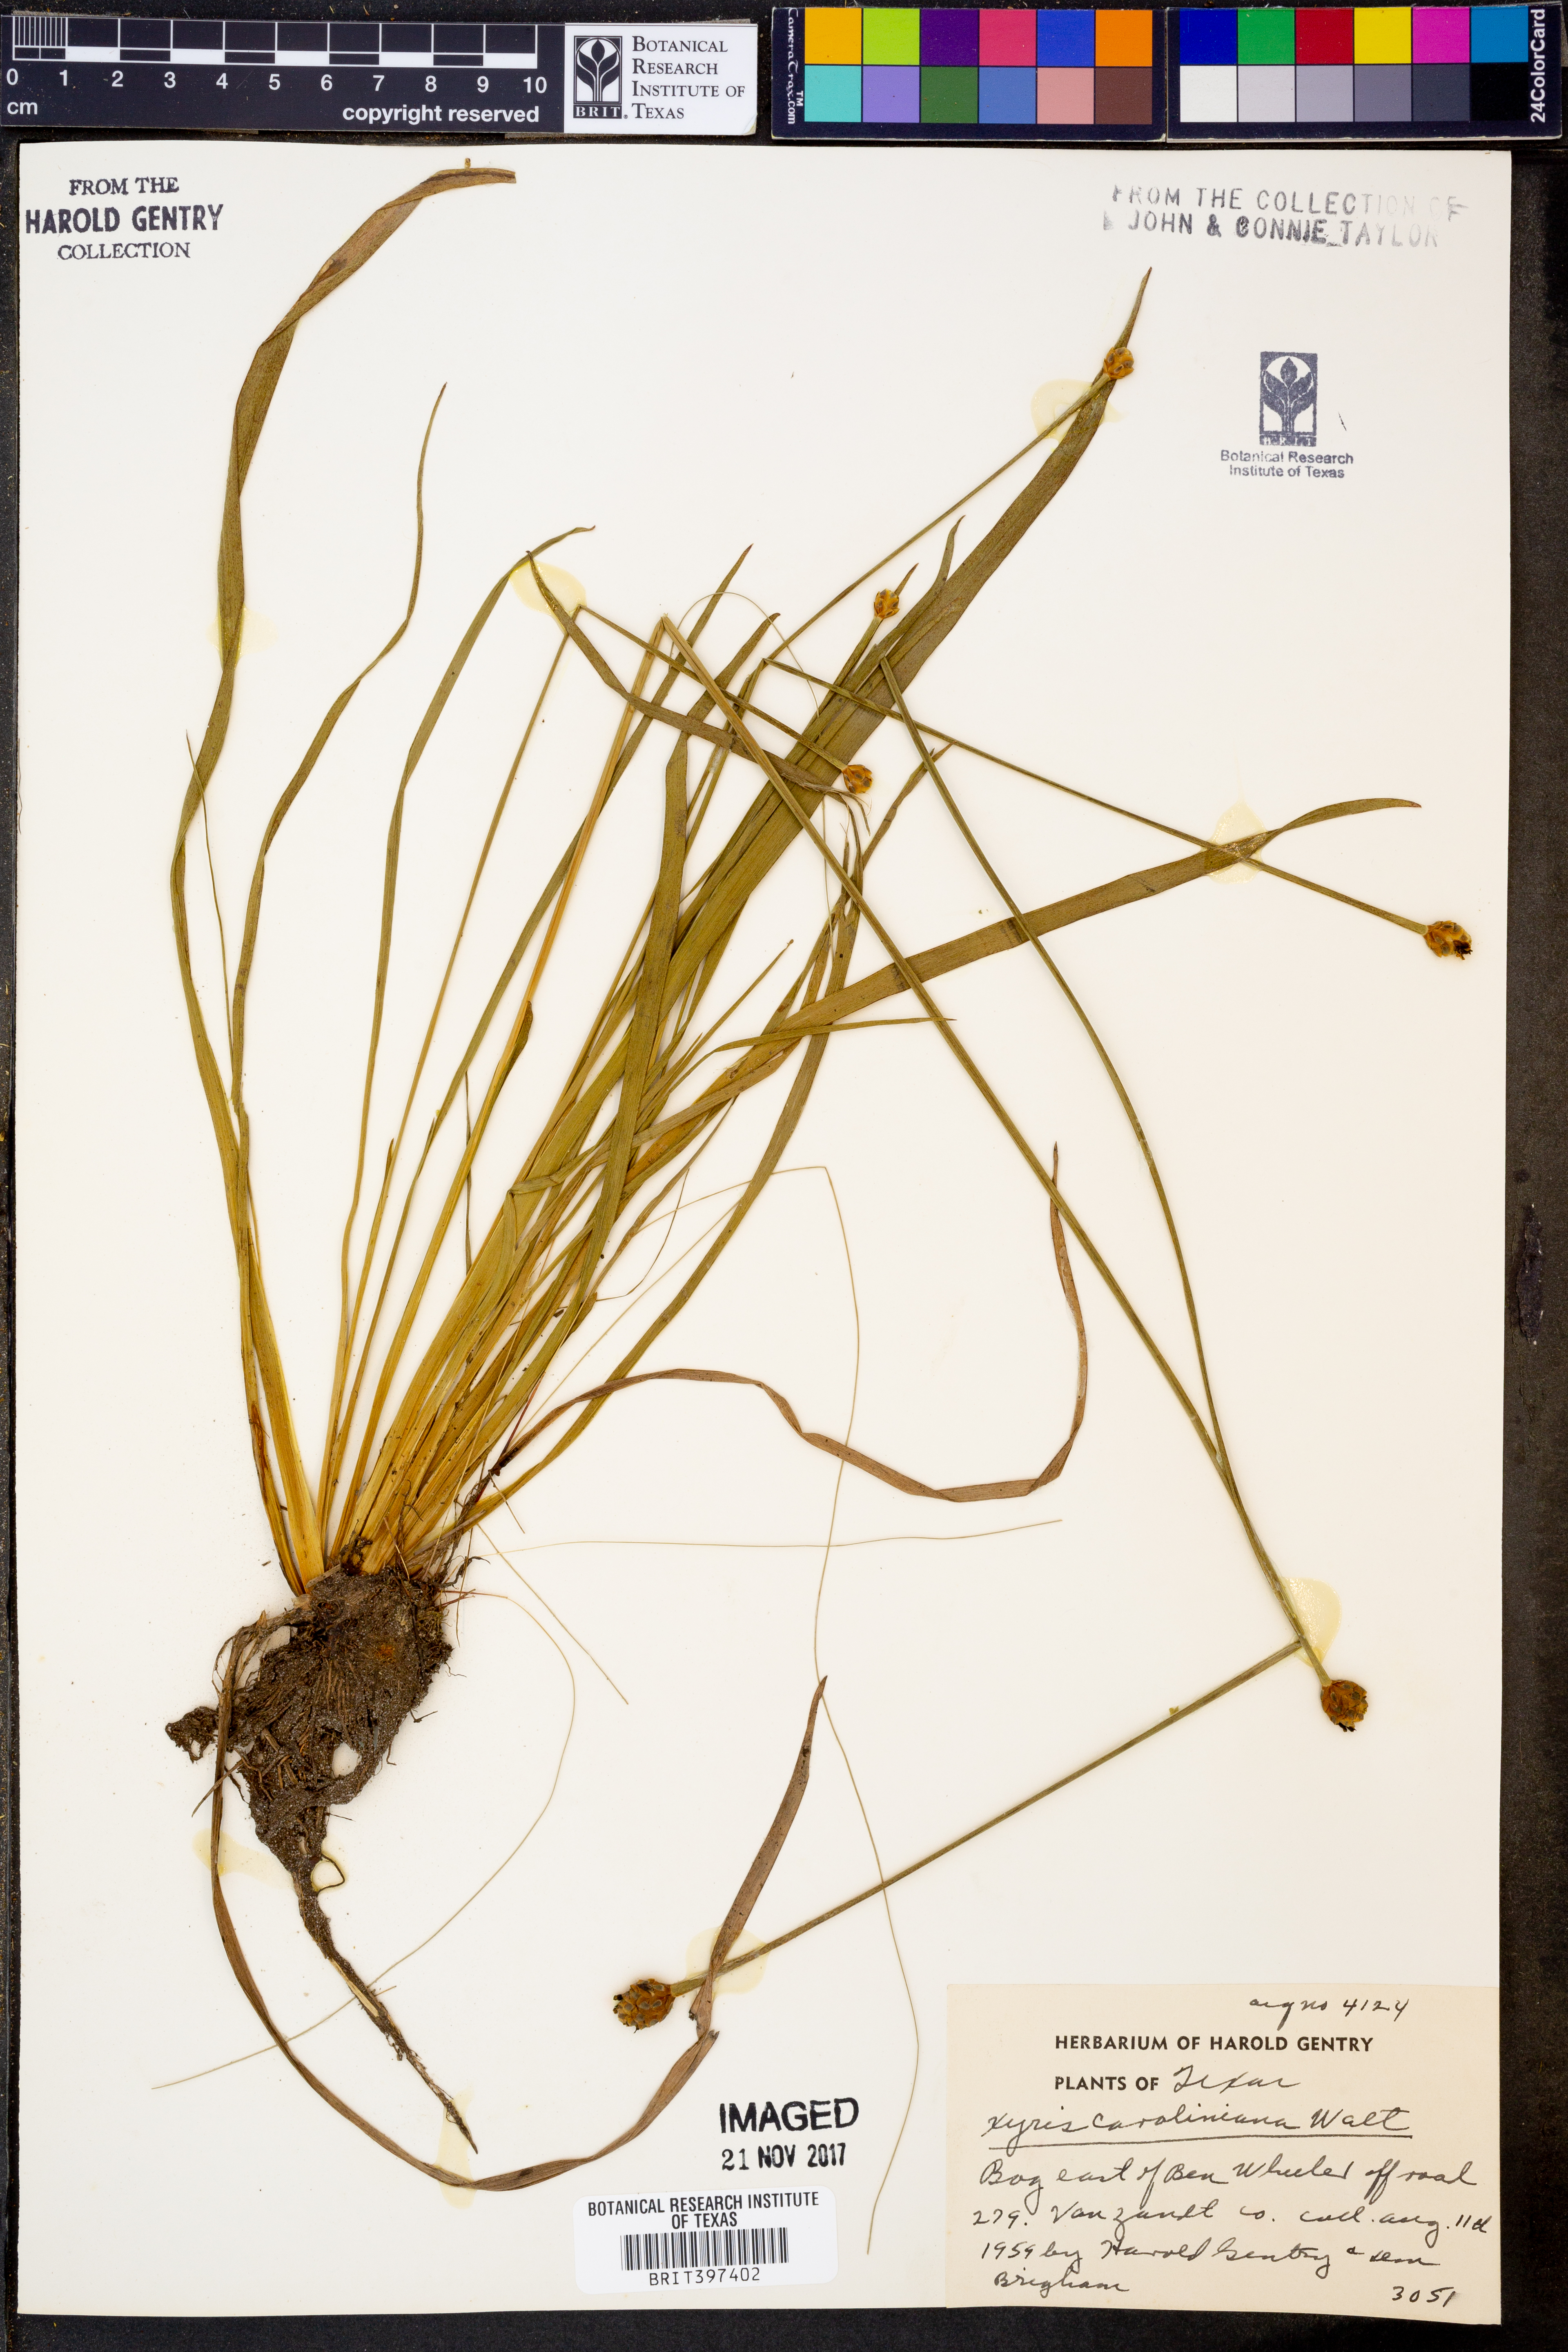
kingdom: Plantae
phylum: Tracheophyta
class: Liliopsida
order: Poales
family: Xyridaceae
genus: Xyris
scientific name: Xyris caroliniana
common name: Carolina yellow-eyed-grass
